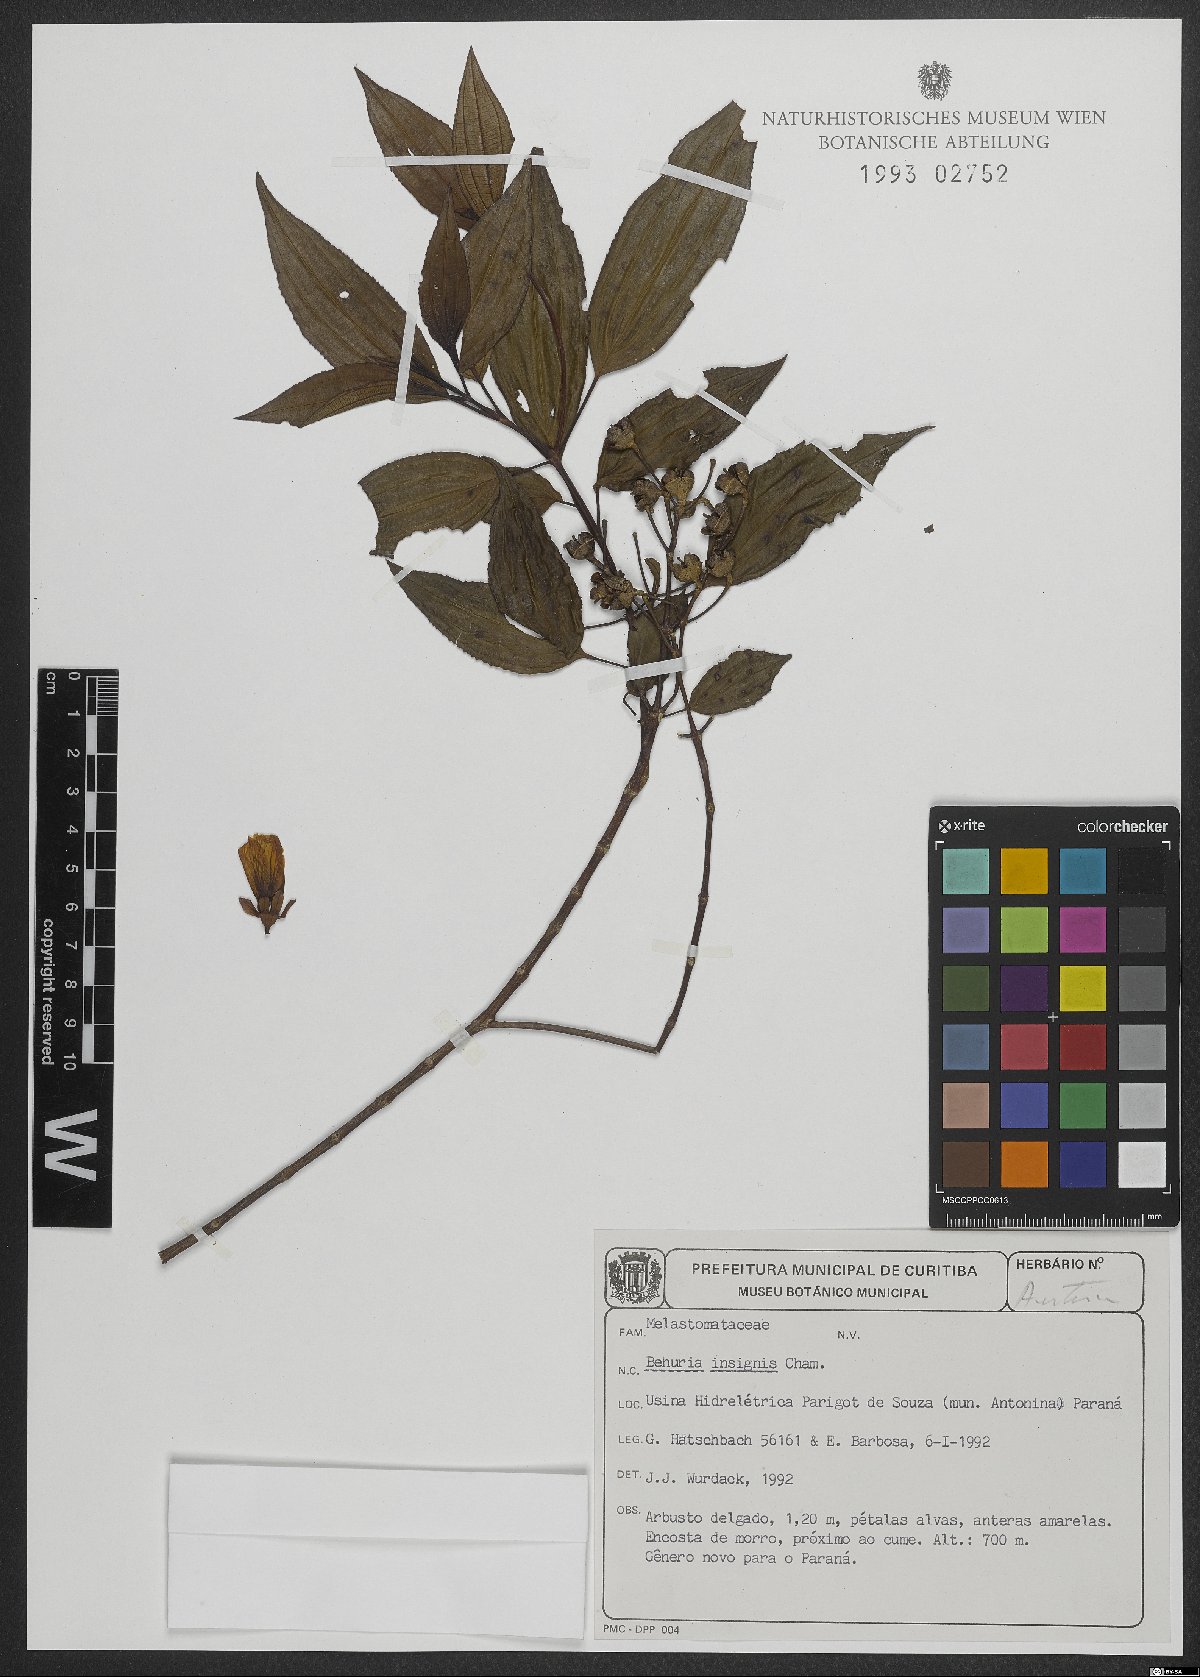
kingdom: Plantae
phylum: Tracheophyta
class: Magnoliopsida
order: Myrtales
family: Melastomataceae
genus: Huberia
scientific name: Huberia insignis
